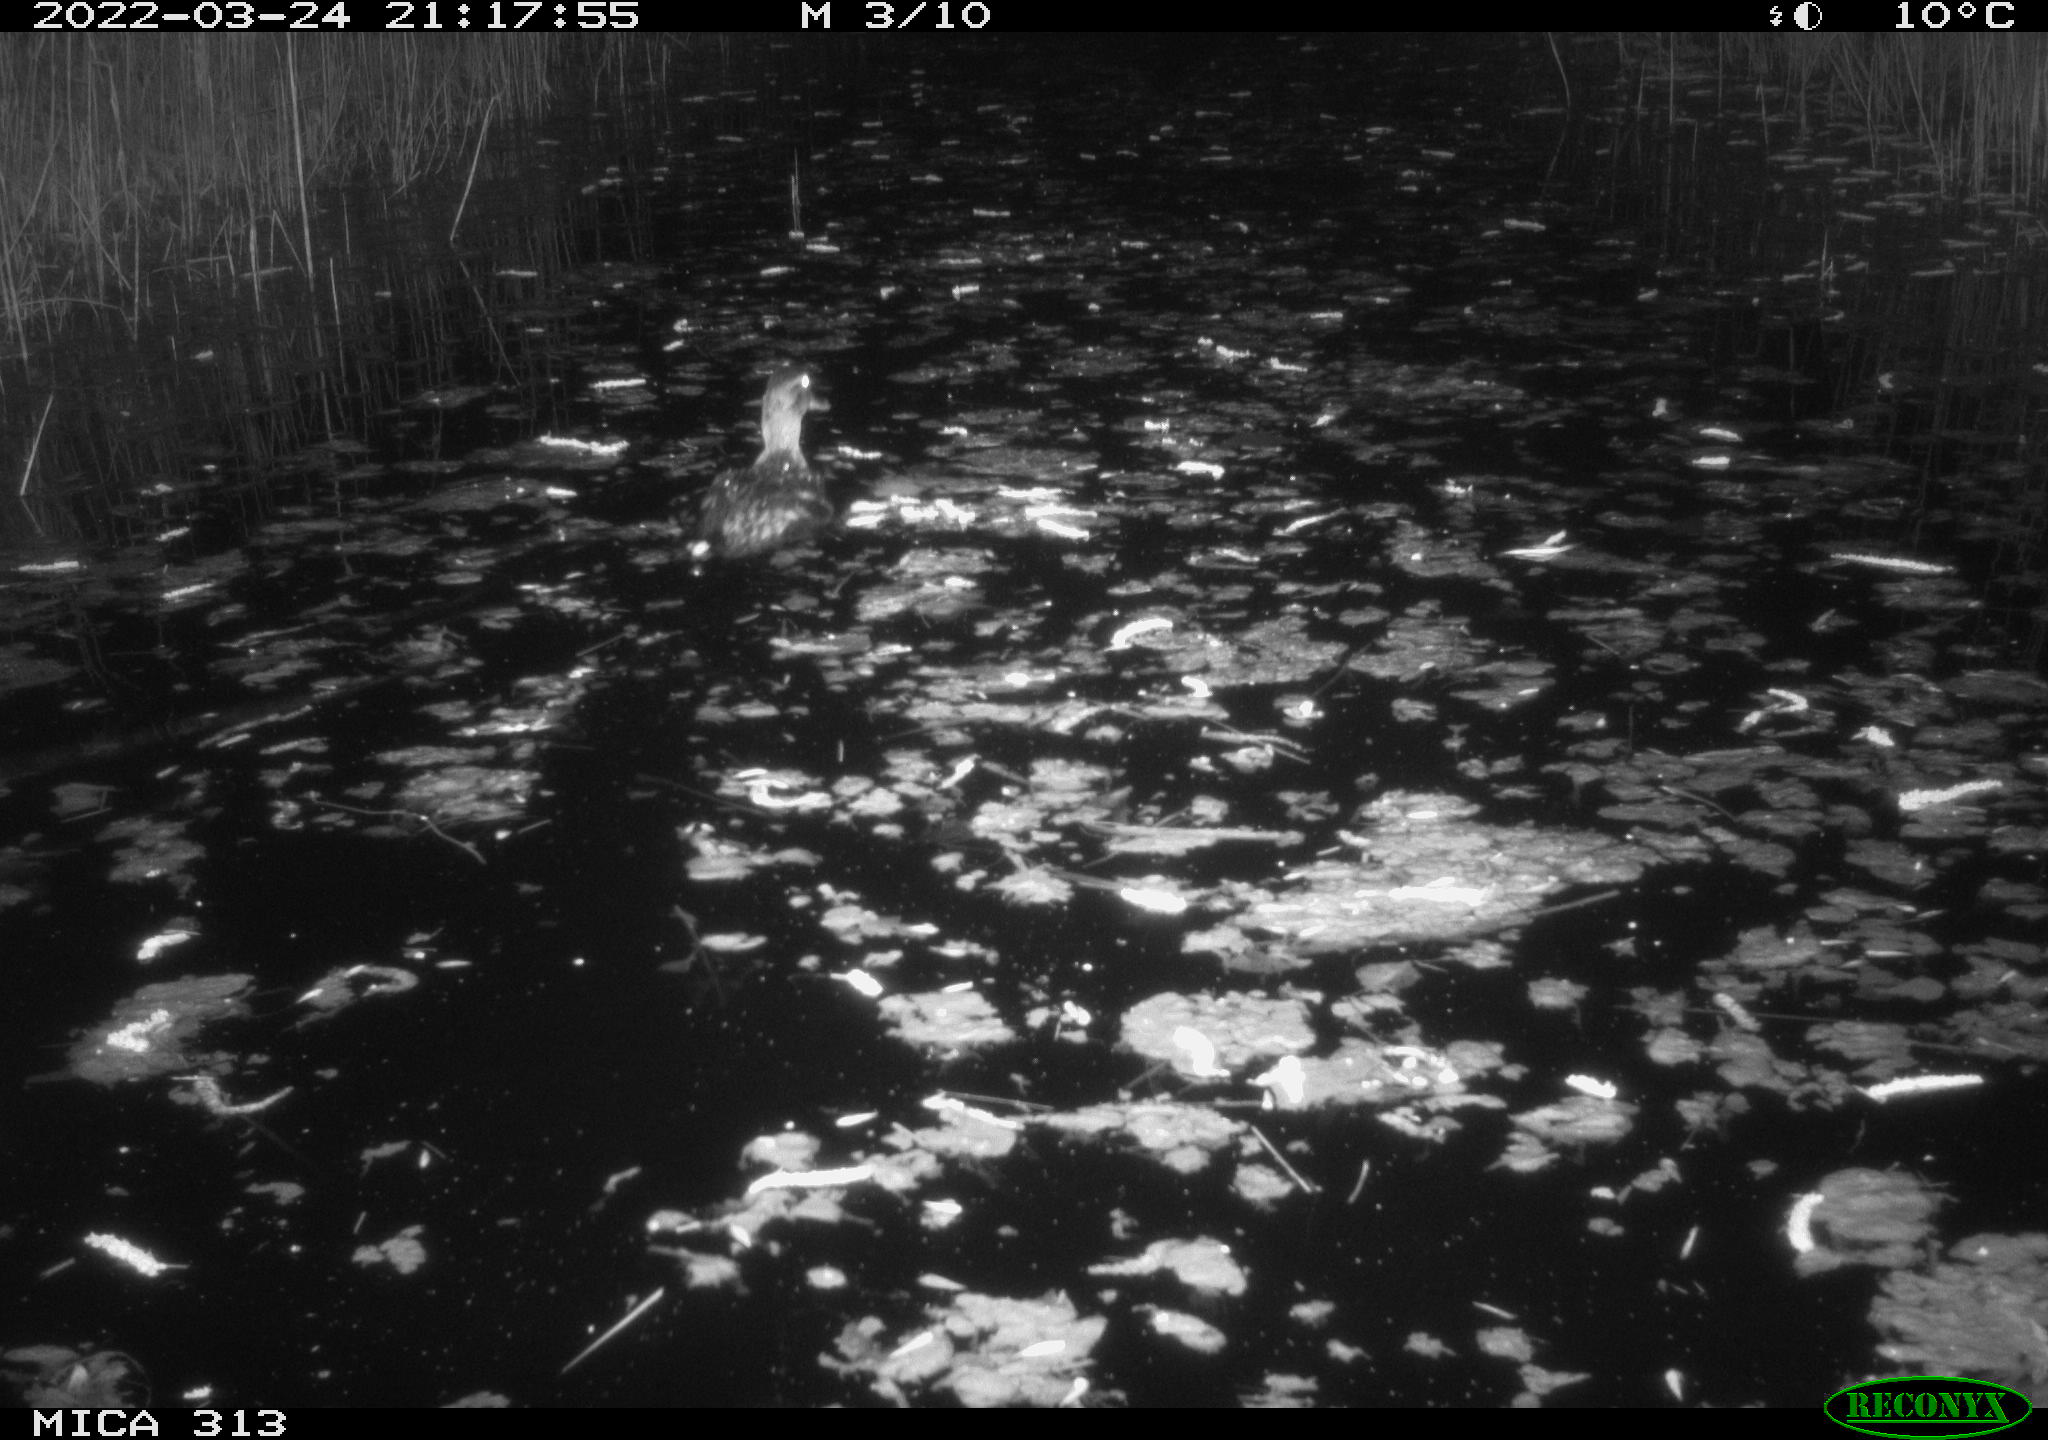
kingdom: Animalia
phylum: Chordata
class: Aves
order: Anseriformes
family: Anatidae
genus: Anas
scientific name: Anas platyrhynchos
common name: Mallard
